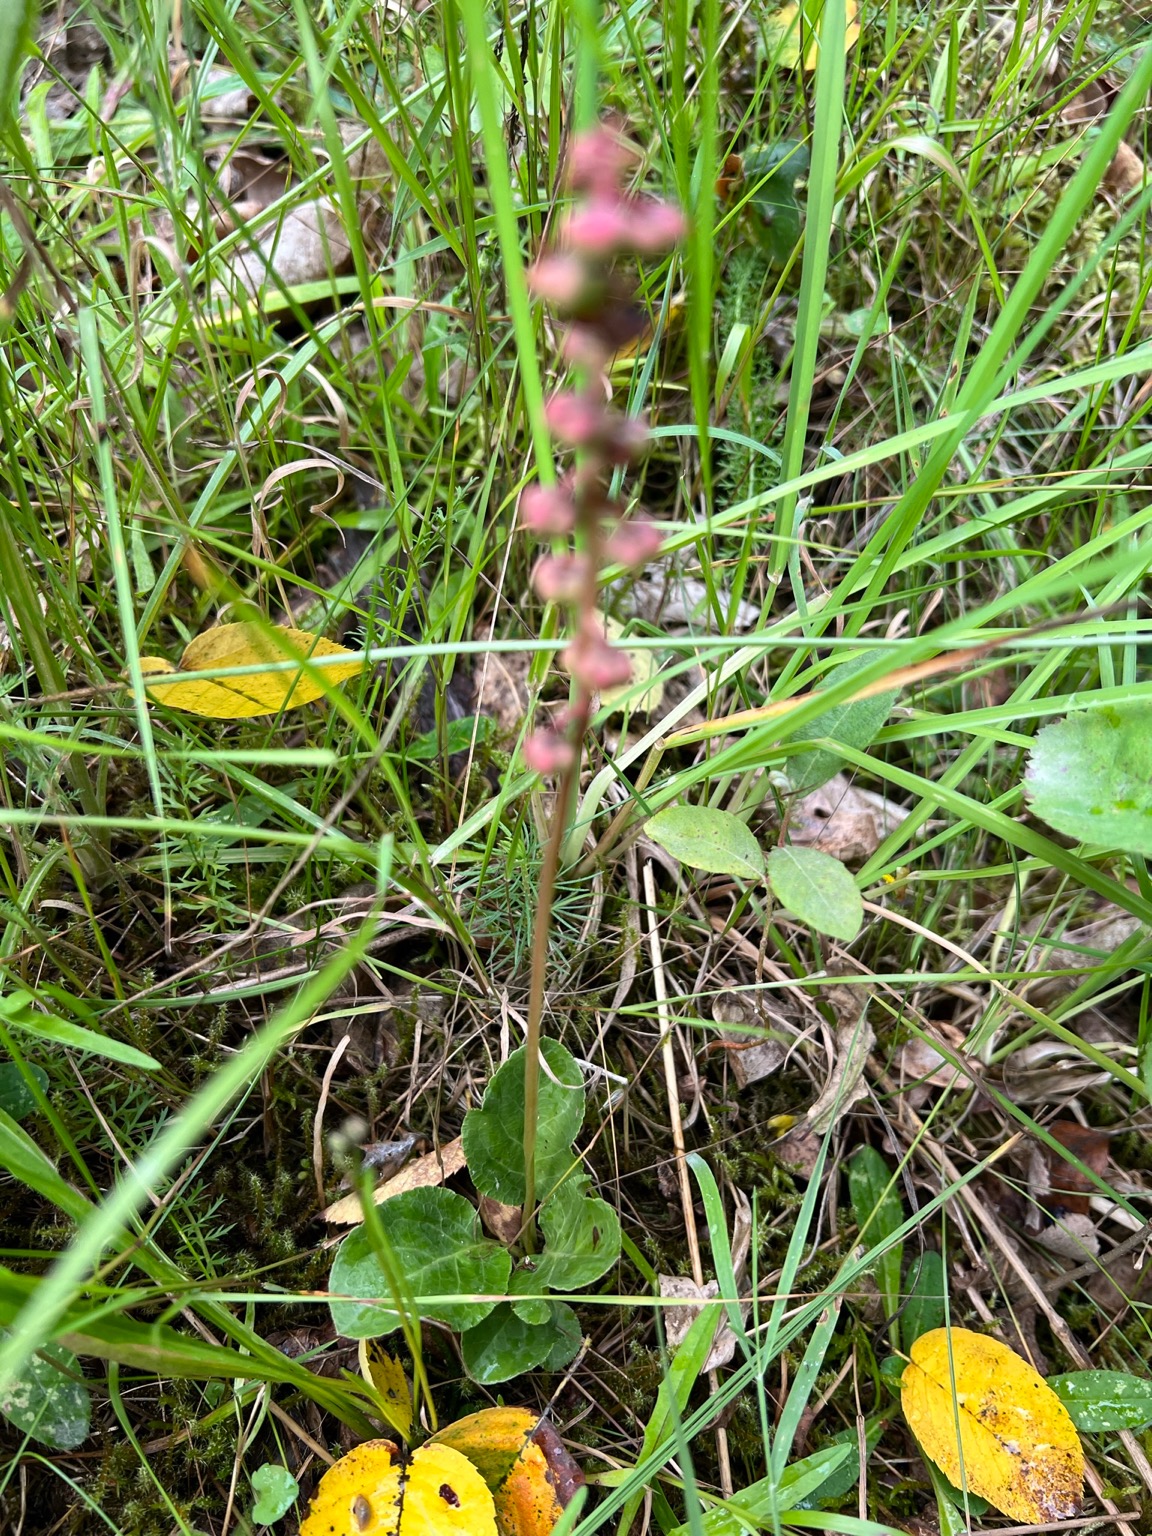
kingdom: Plantae
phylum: Tracheophyta
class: Magnoliopsida
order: Ericales
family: Ericaceae
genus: Pyrola
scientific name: Pyrola minor
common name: Liden vintergrøn
